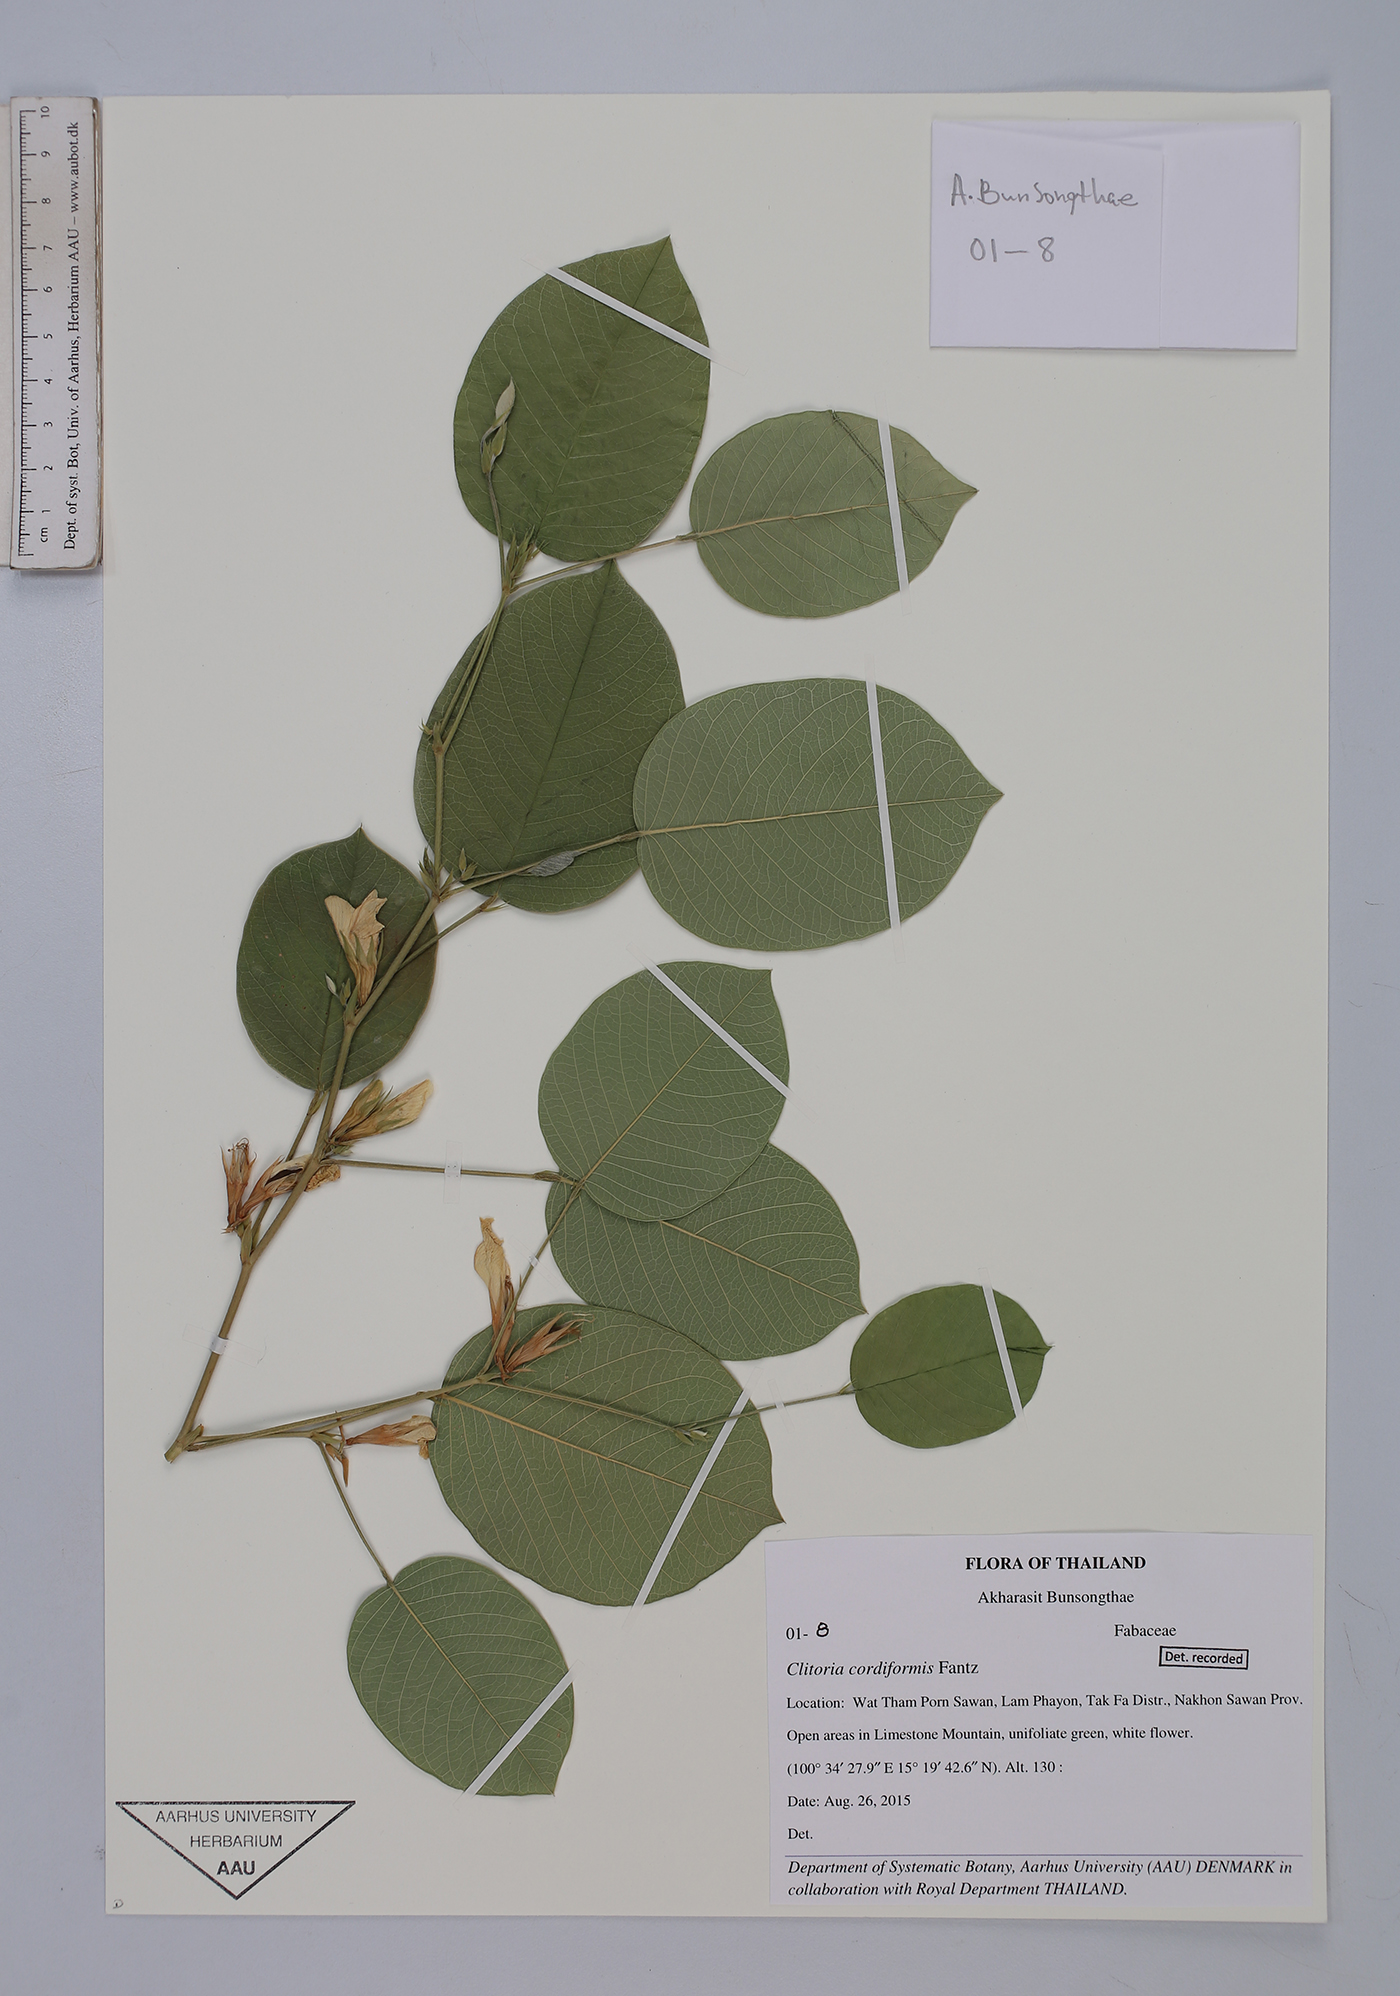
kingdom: Plantae
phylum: Tracheophyta
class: Magnoliopsida
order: Fabales
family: Fabaceae
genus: Clitoria
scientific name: Clitoria cordiformis
